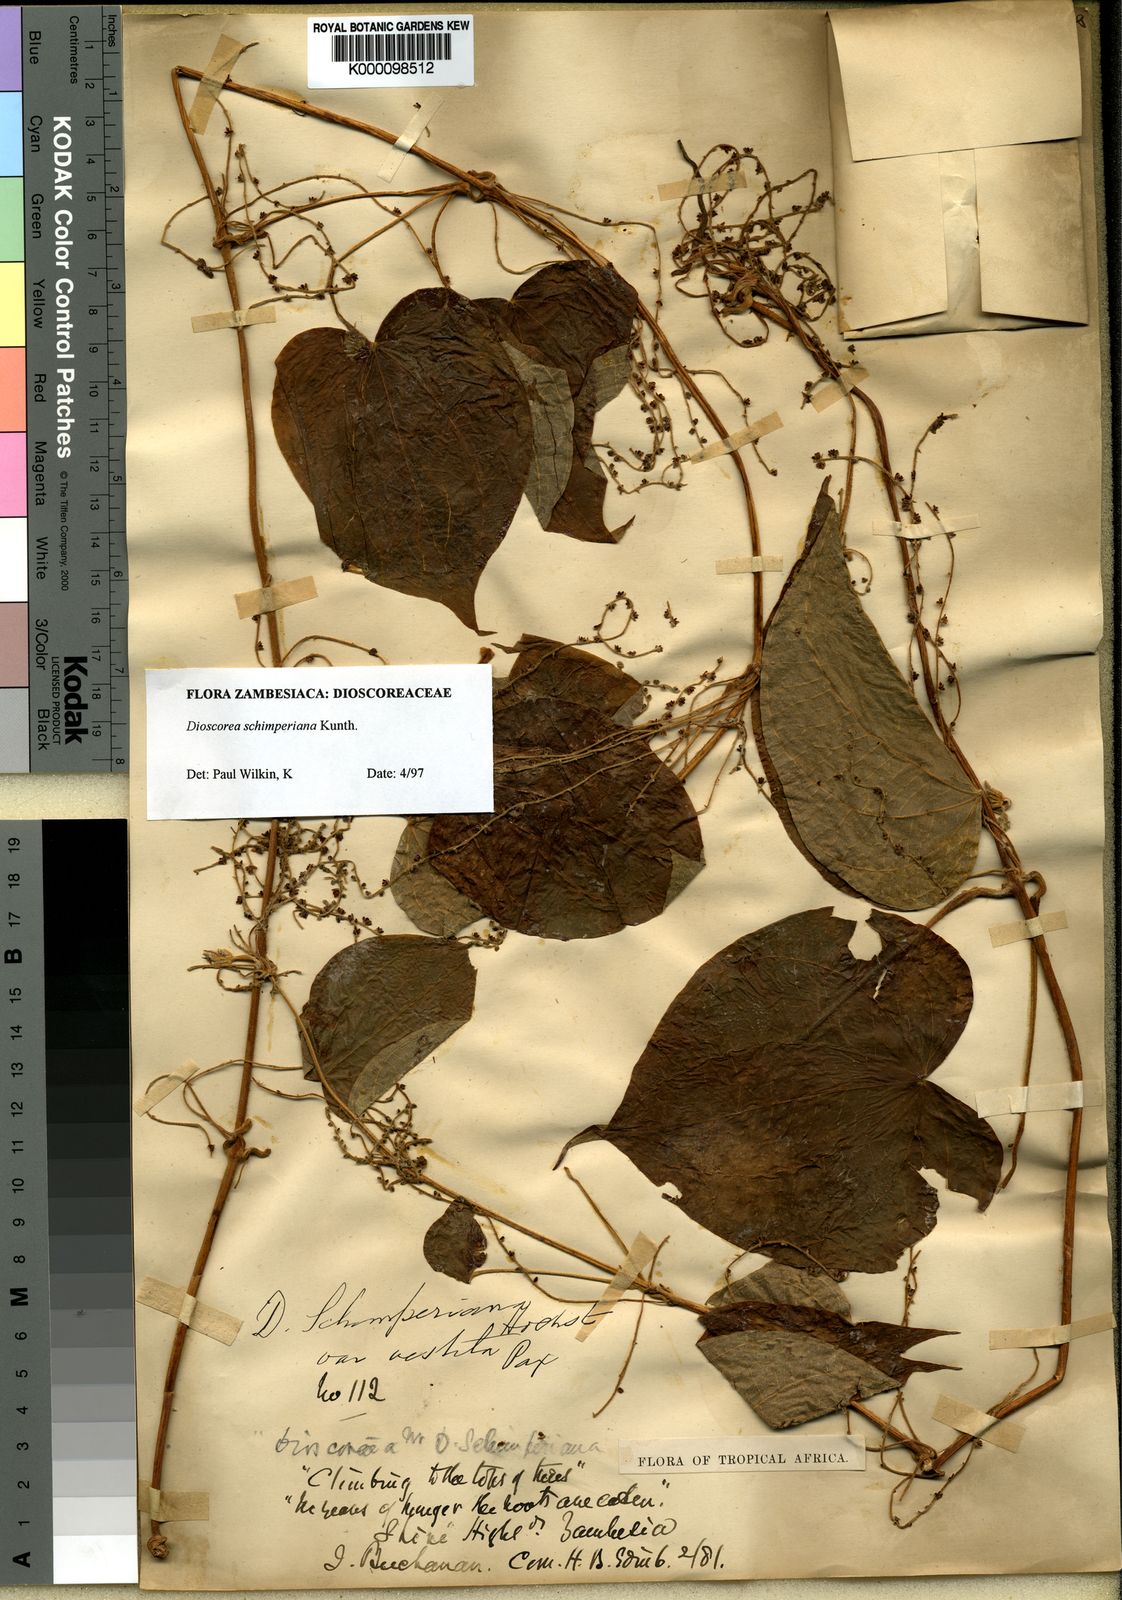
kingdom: Plantae
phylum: Tracheophyta
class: Liliopsida
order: Dioscoreales
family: Dioscoreaceae
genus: Dioscorea
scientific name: Dioscorea schimperiana
